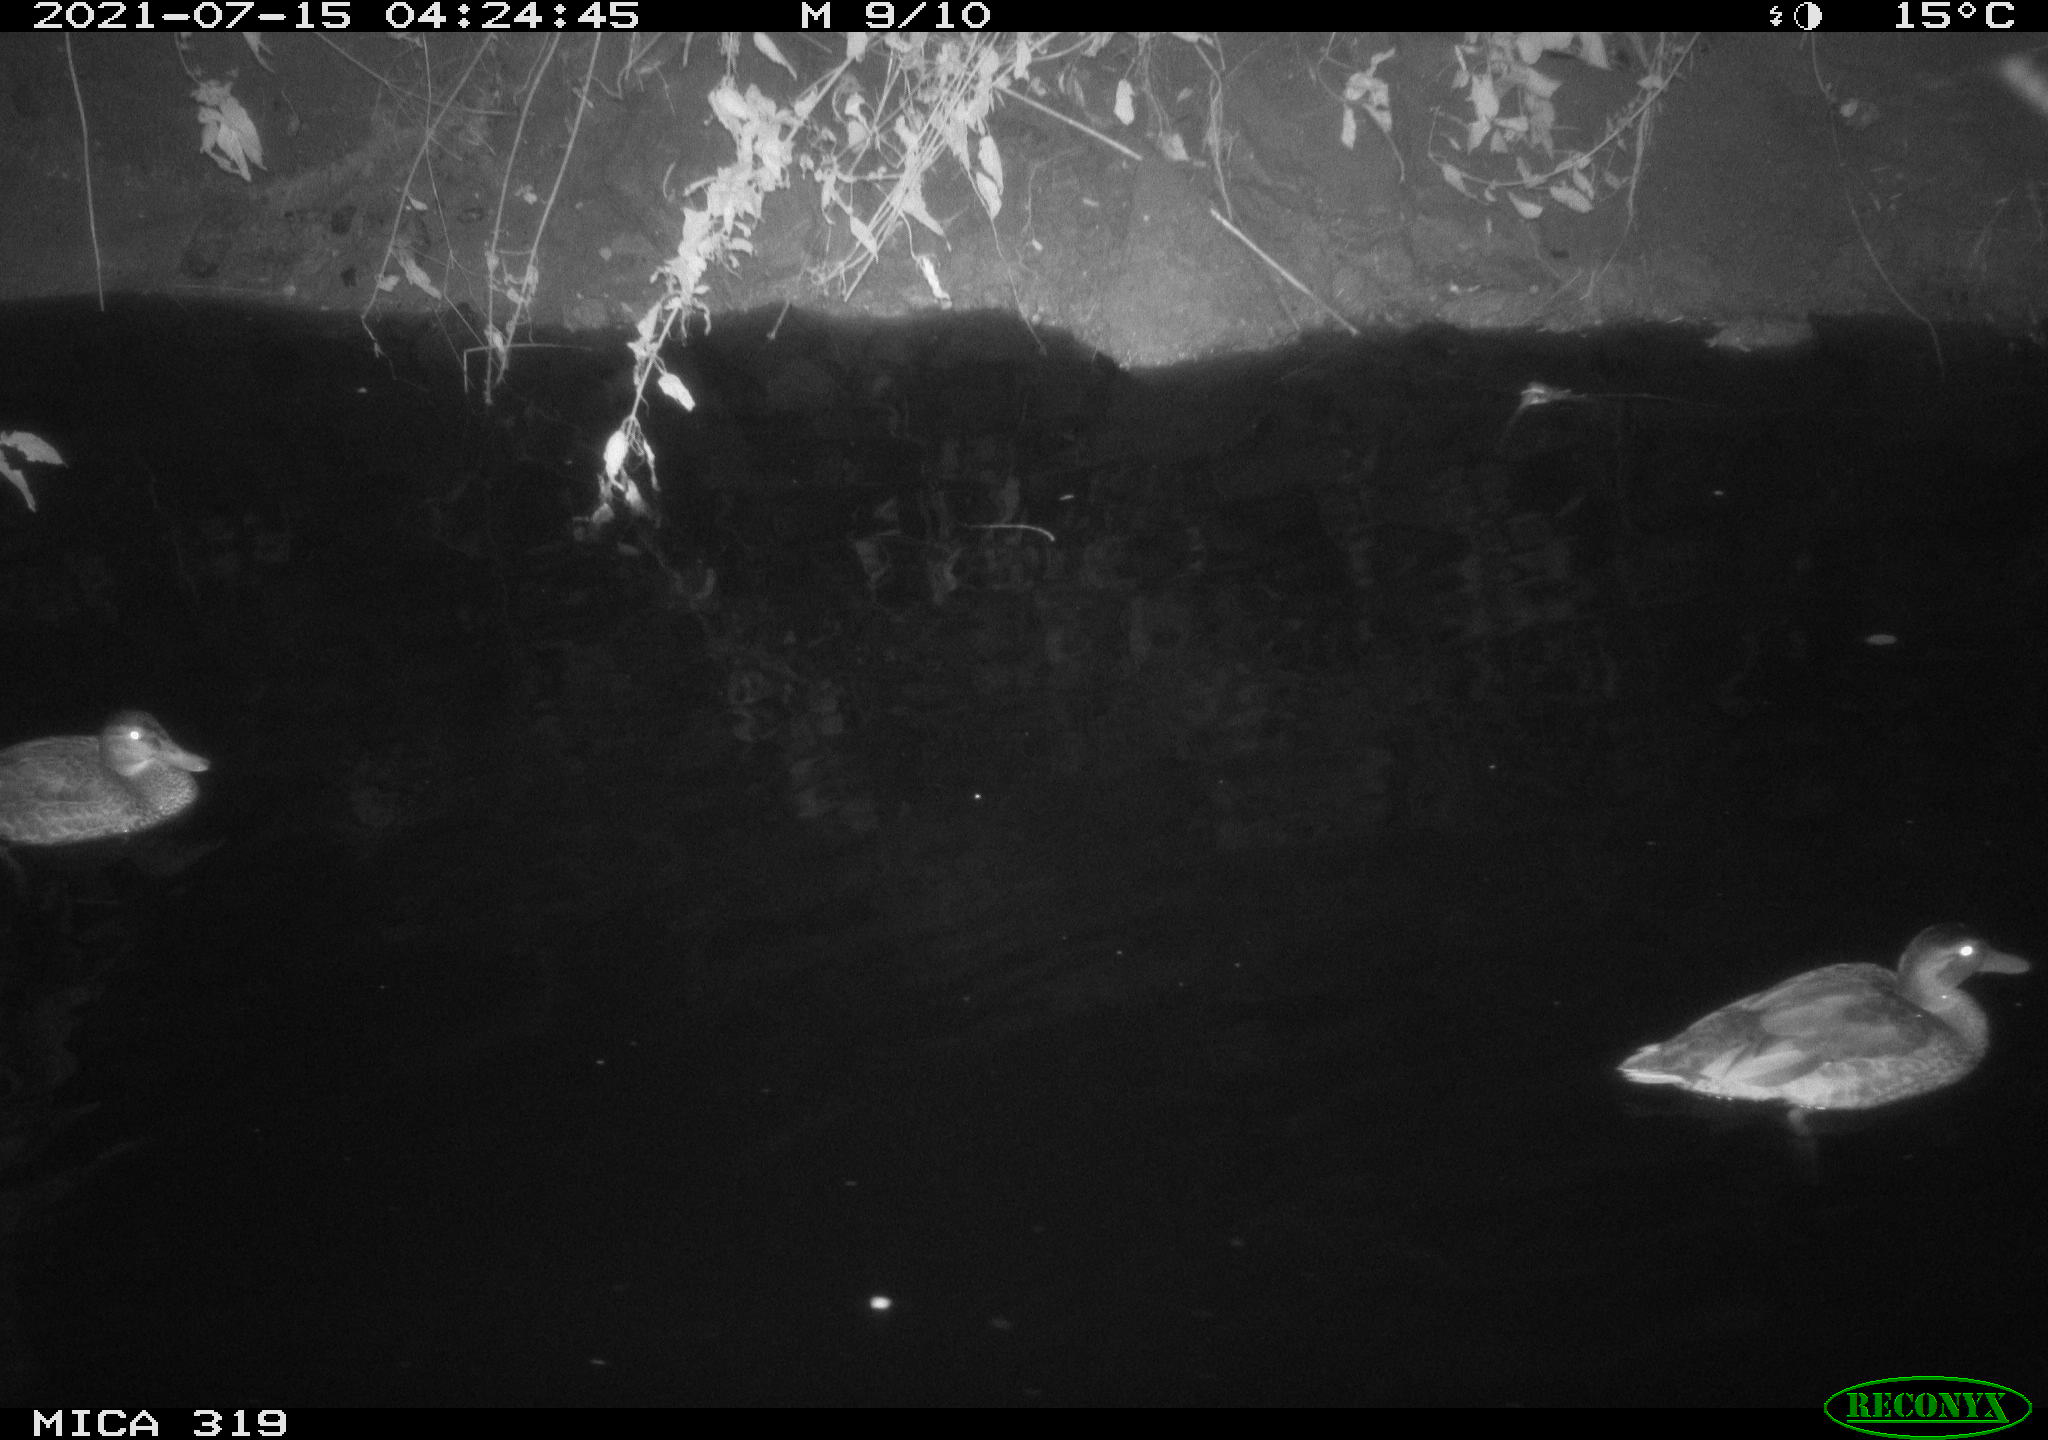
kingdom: Animalia
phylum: Chordata
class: Aves
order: Anseriformes
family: Anatidae
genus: Anas
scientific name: Anas platyrhynchos
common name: Mallard
